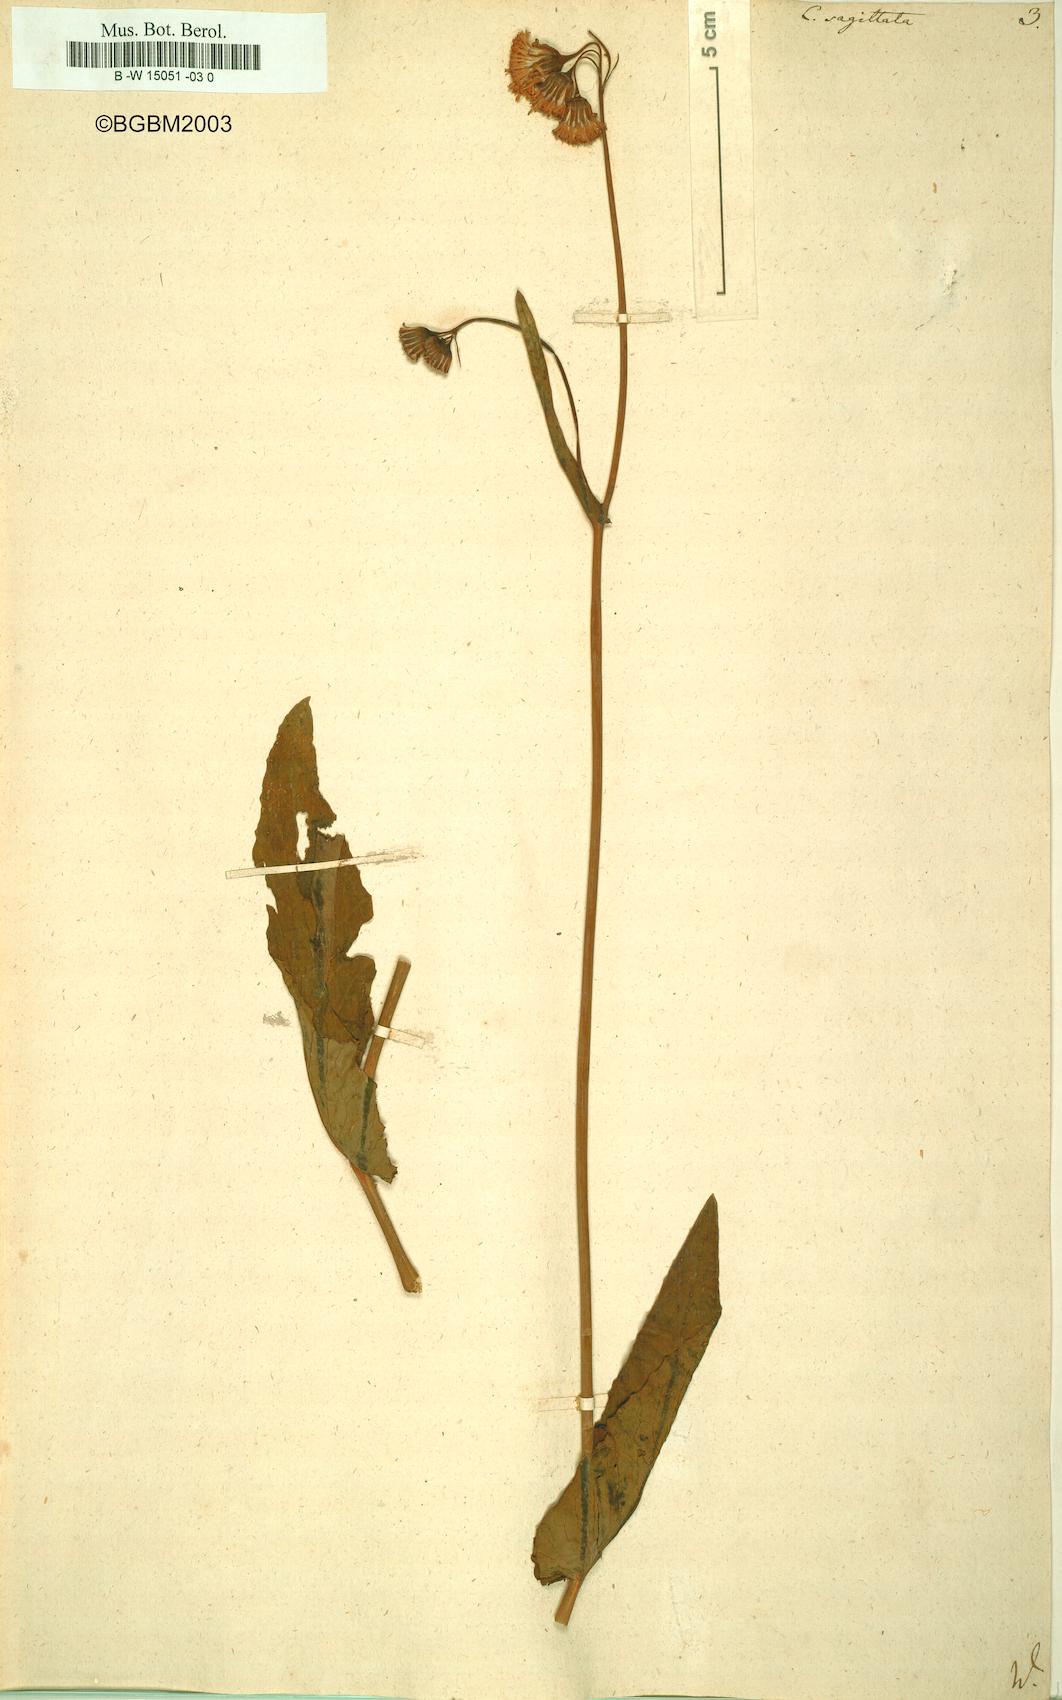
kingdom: Plantae
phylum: Tracheophyta
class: Magnoliopsida
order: Asterales
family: Asteraceae
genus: Emilia
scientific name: Emilia
